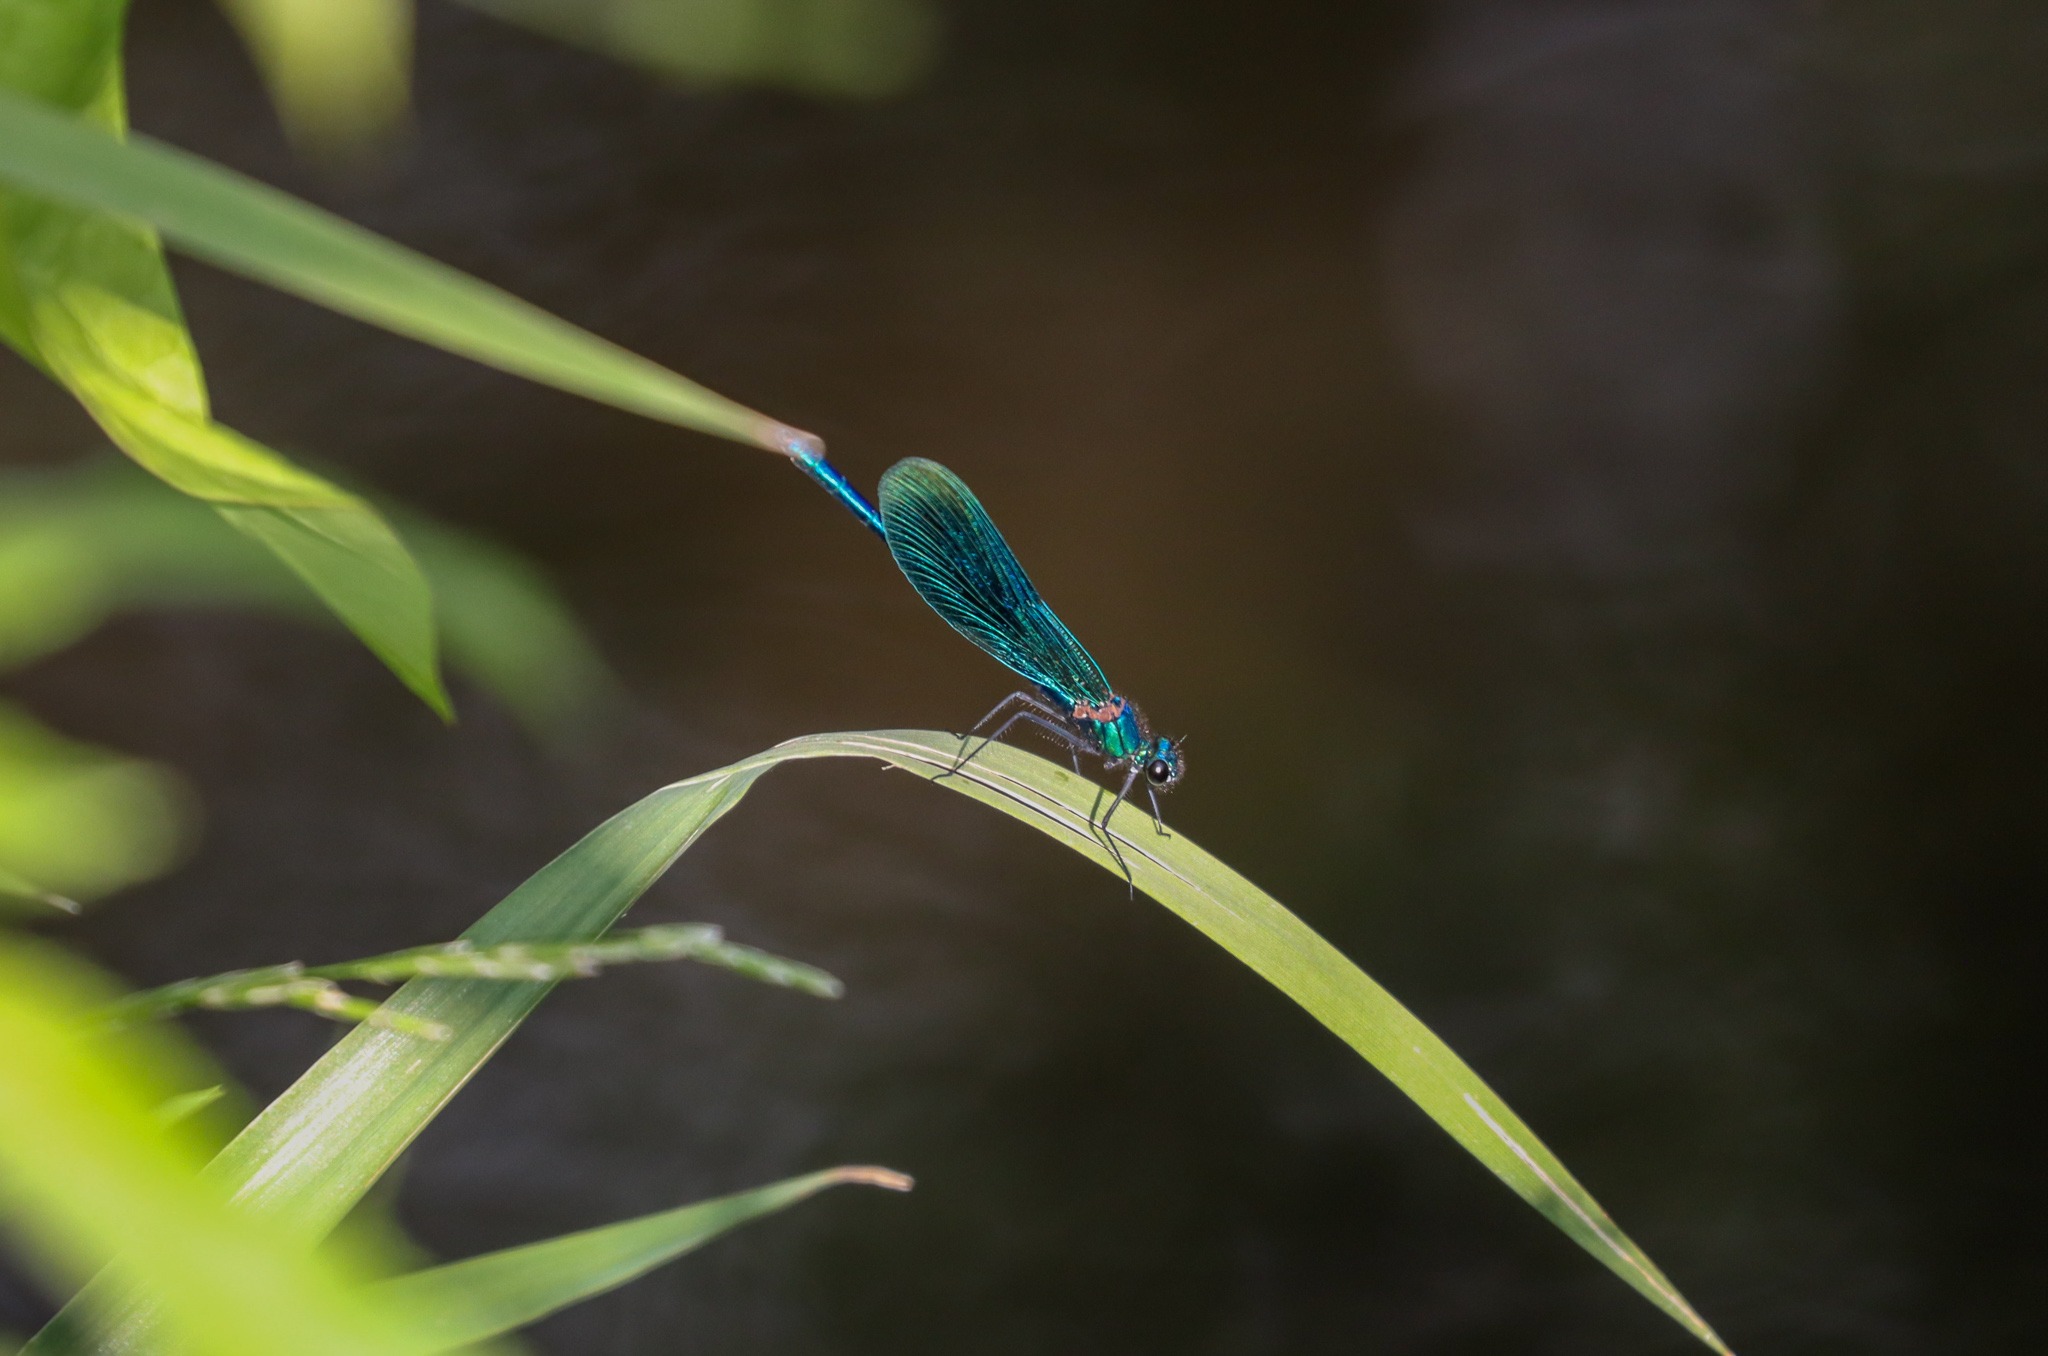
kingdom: Animalia
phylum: Arthropoda
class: Insecta
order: Odonata
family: Calopterygidae
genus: Calopteryx
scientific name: Calopteryx virgo
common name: Blåvinget pragtvandnymfe
